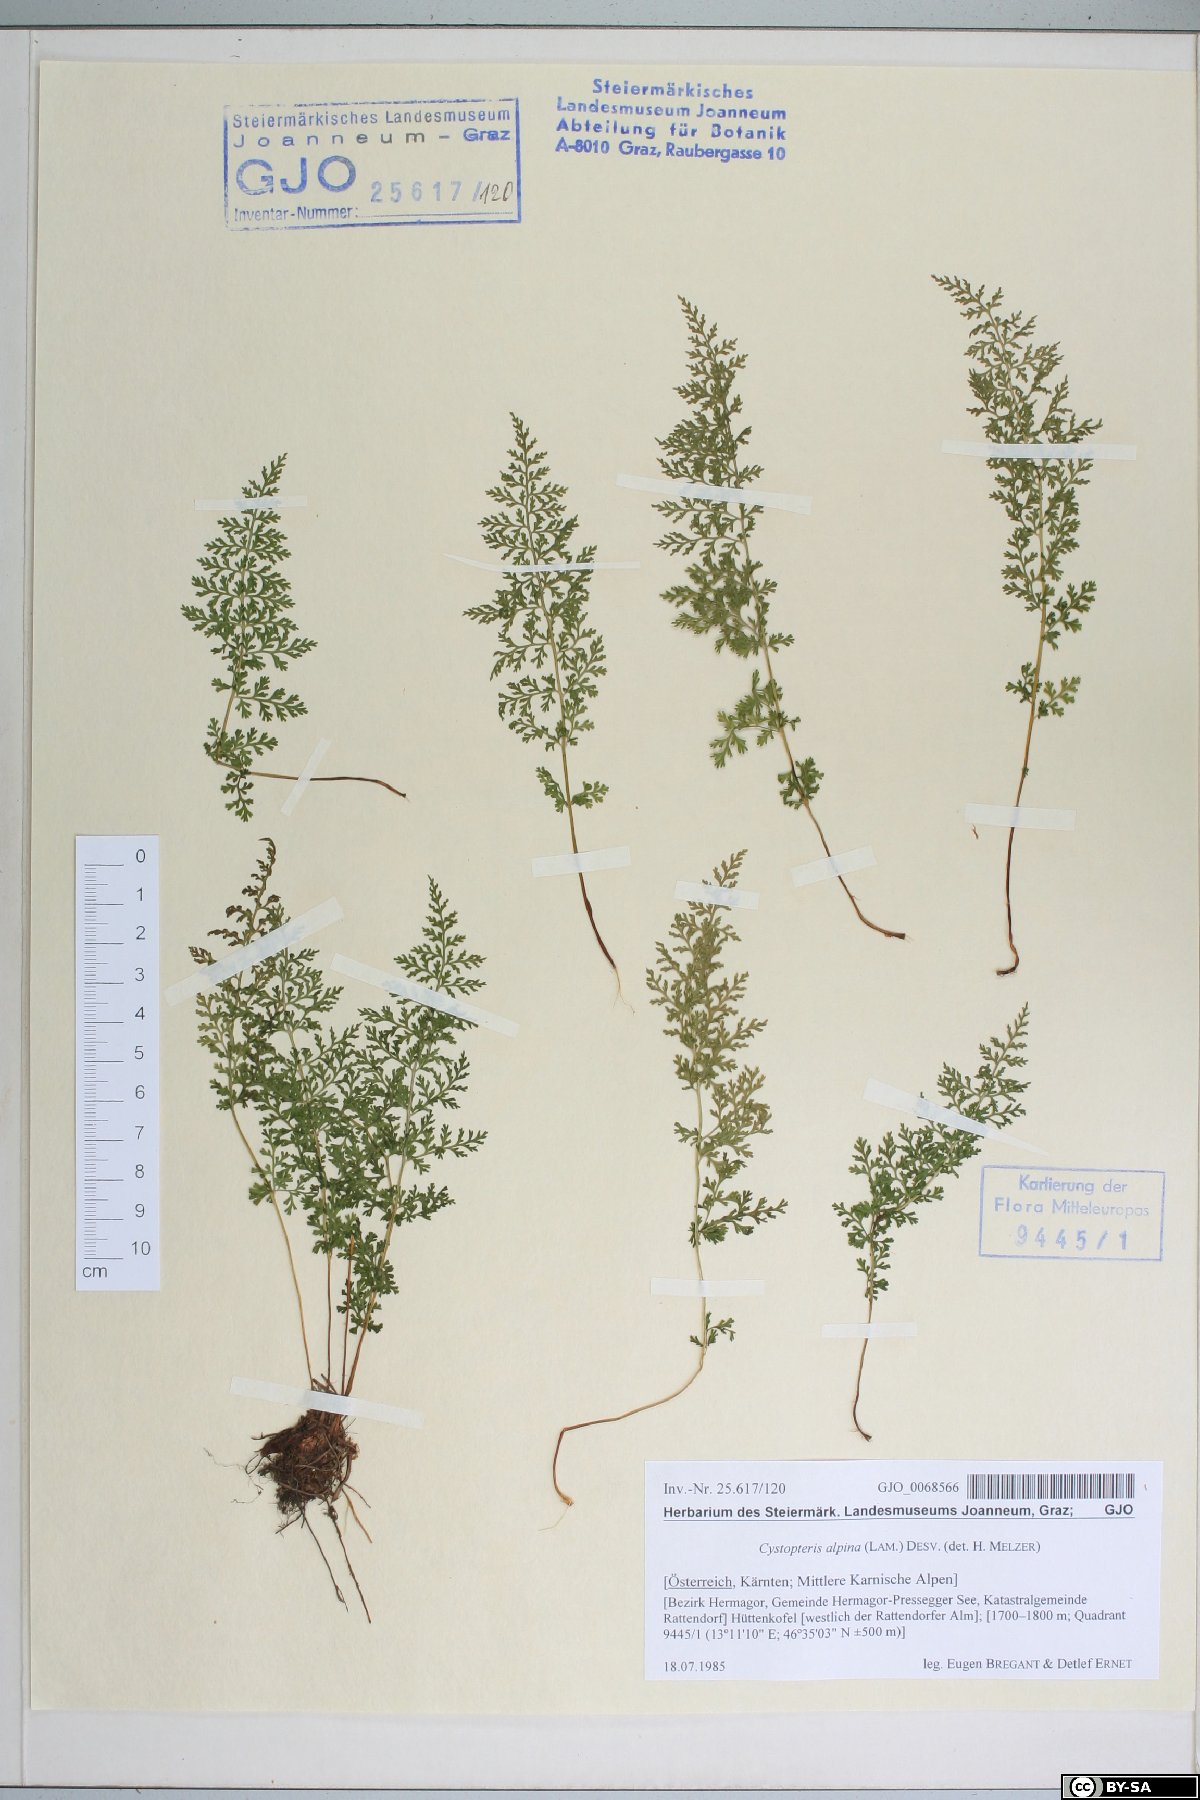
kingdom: Plantae
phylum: Tracheophyta
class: Polypodiopsida
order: Polypodiales
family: Cystopteridaceae
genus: Cystopteris
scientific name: Cystopteris alpina
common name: Alpine bladder-fern
